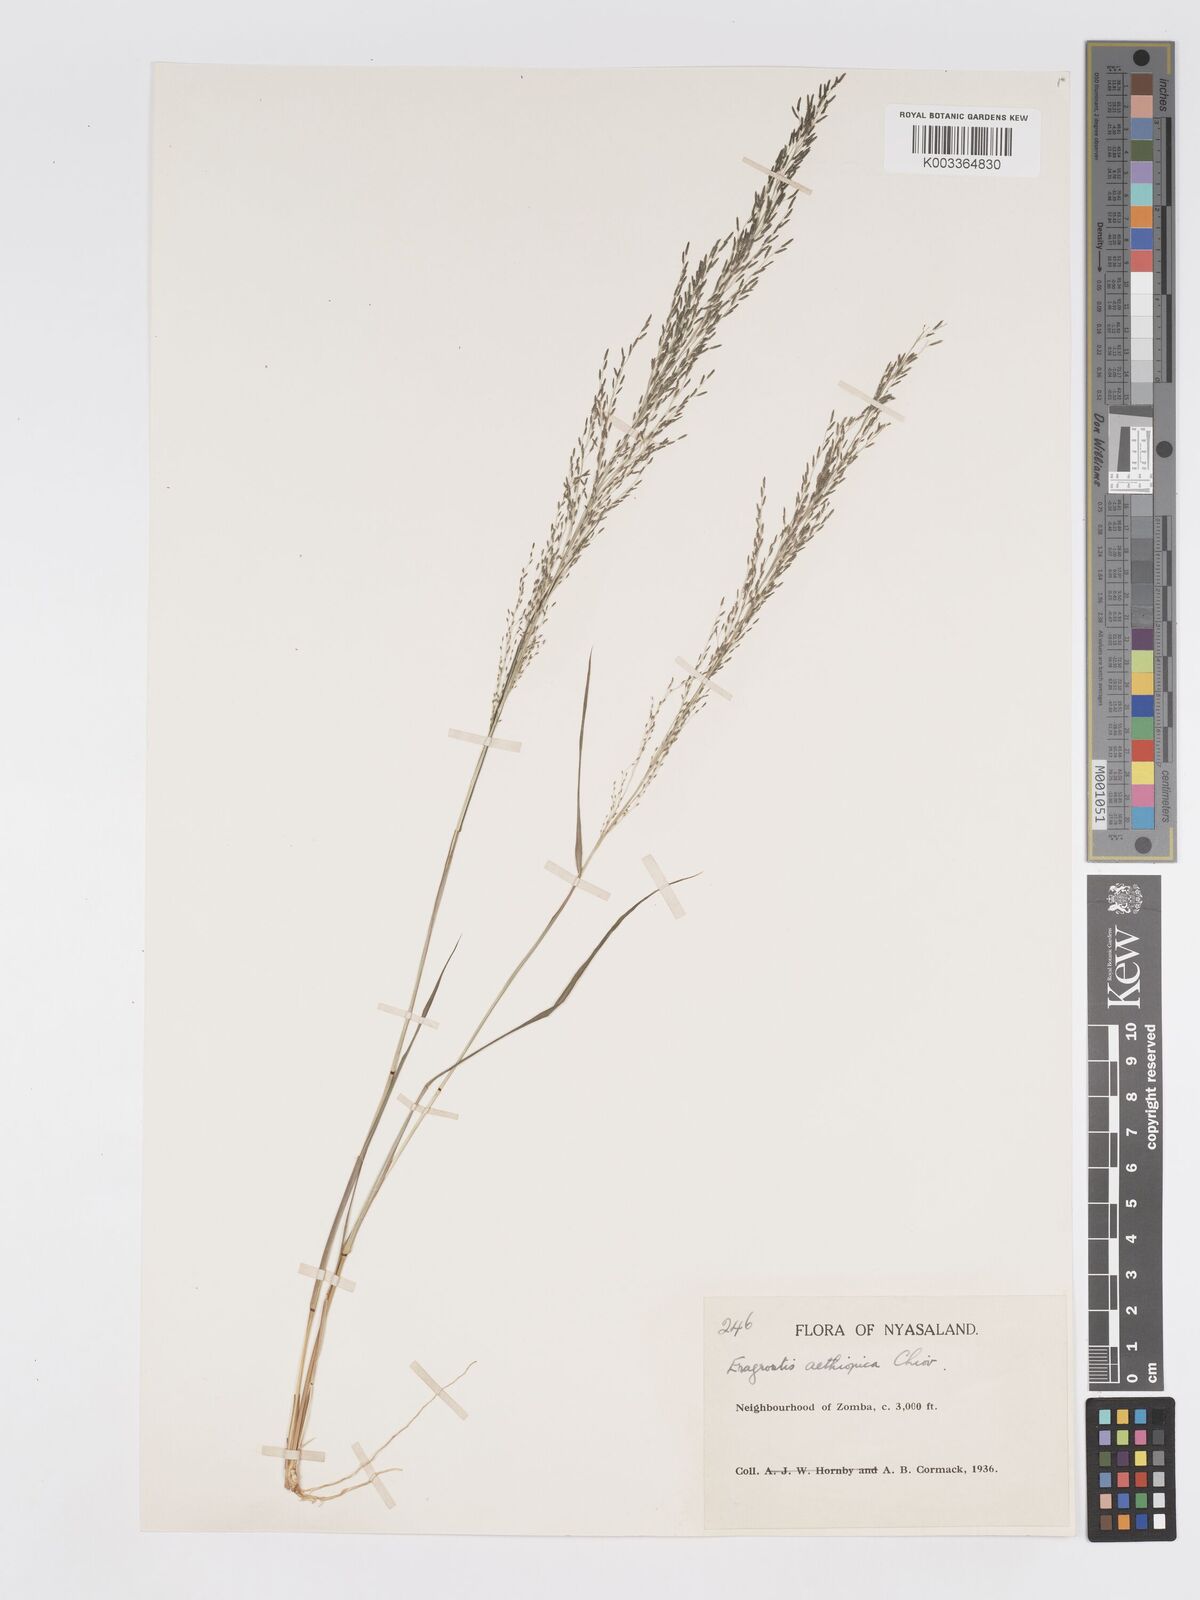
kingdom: Plantae
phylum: Tracheophyta
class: Liliopsida
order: Poales
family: Poaceae
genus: Eragrostis
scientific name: Eragrostis aethiopica
